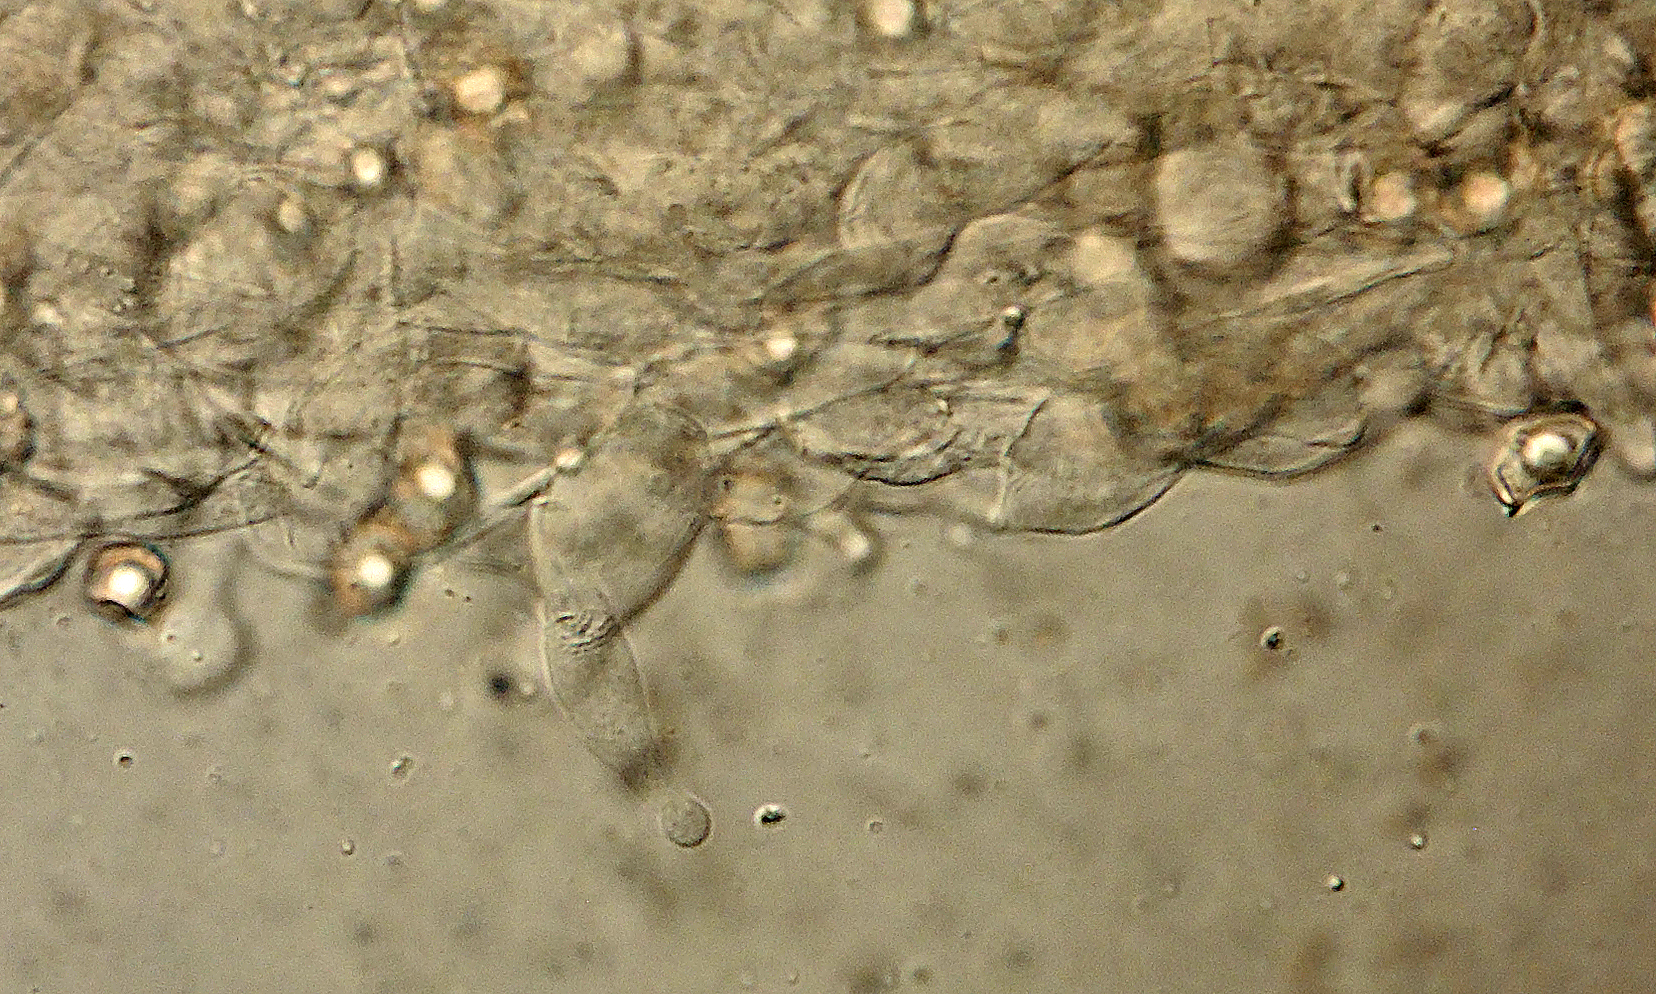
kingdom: Fungi
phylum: Basidiomycota
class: Agaricomycetes
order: Agaricales
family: Entolomataceae
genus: Entoloma
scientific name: Entoloma elodes
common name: mørkægget rødblad
